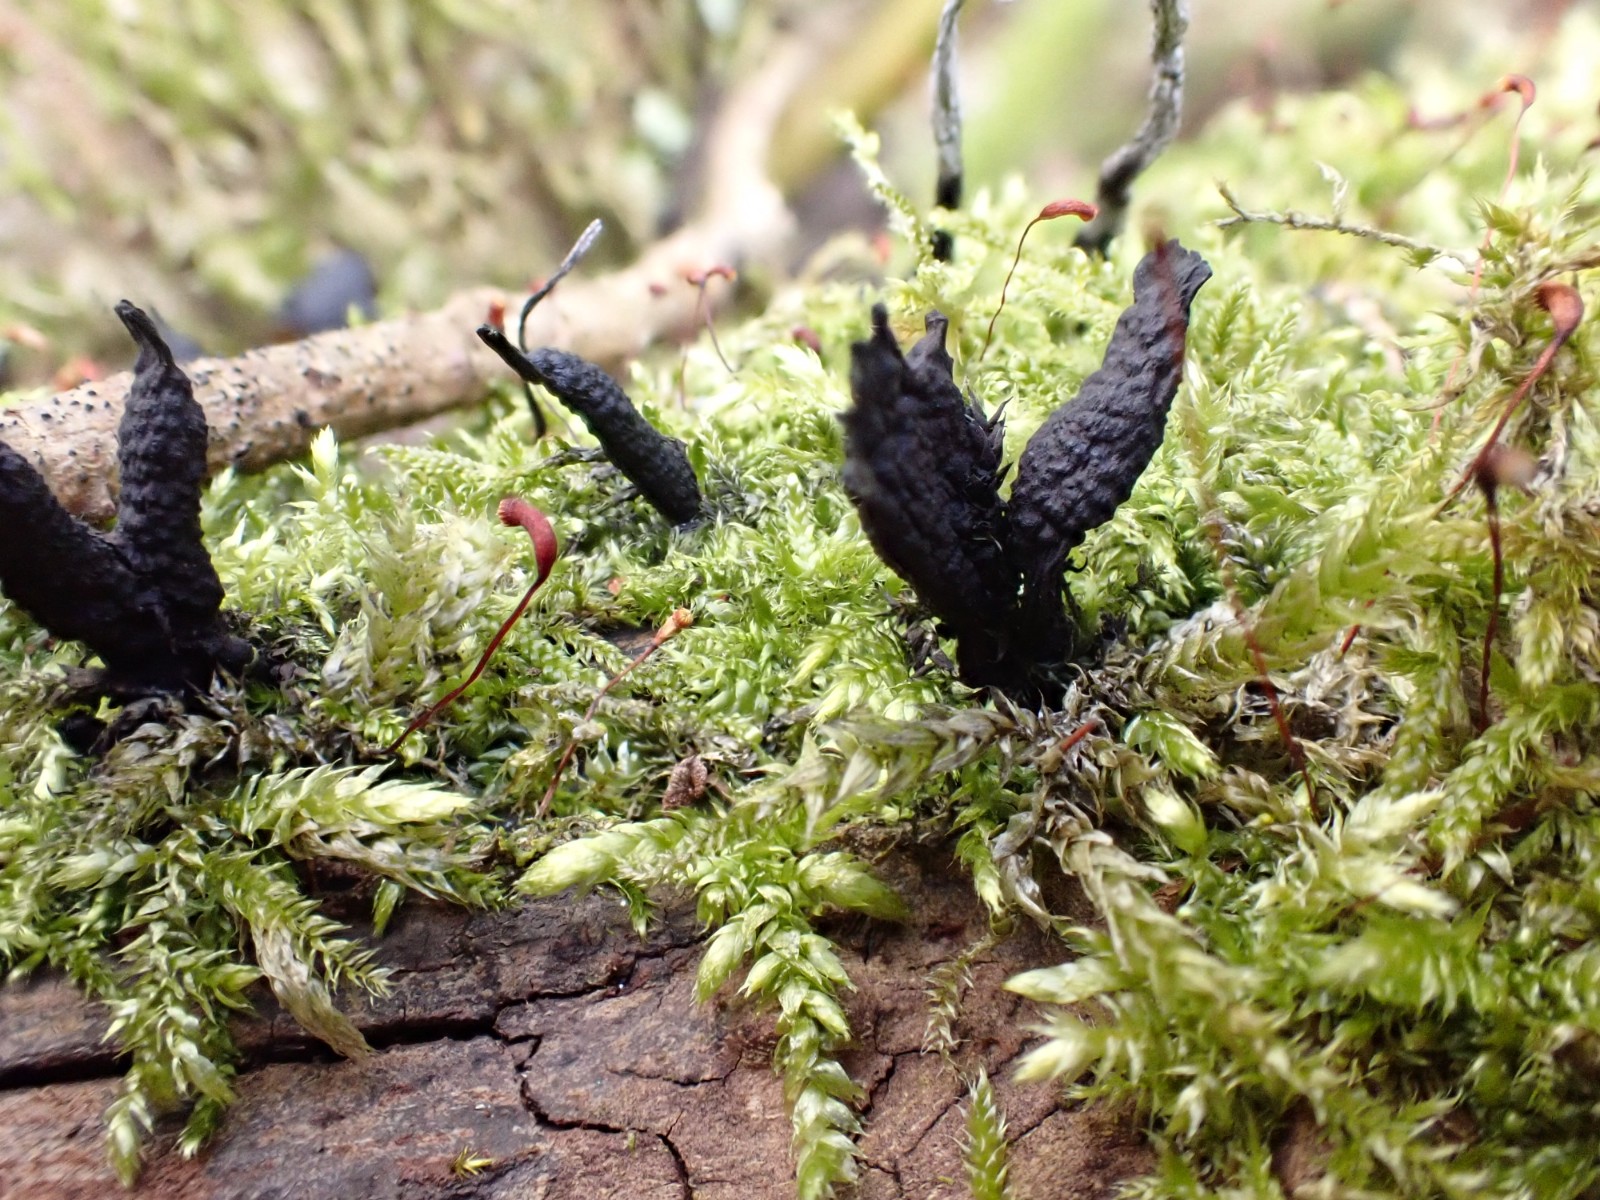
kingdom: Fungi
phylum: Ascomycota
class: Sordariomycetes
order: Xylariales
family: Xylariaceae
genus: Xylaria
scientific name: Xylaria hypoxylon
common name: grenet stødsvamp
